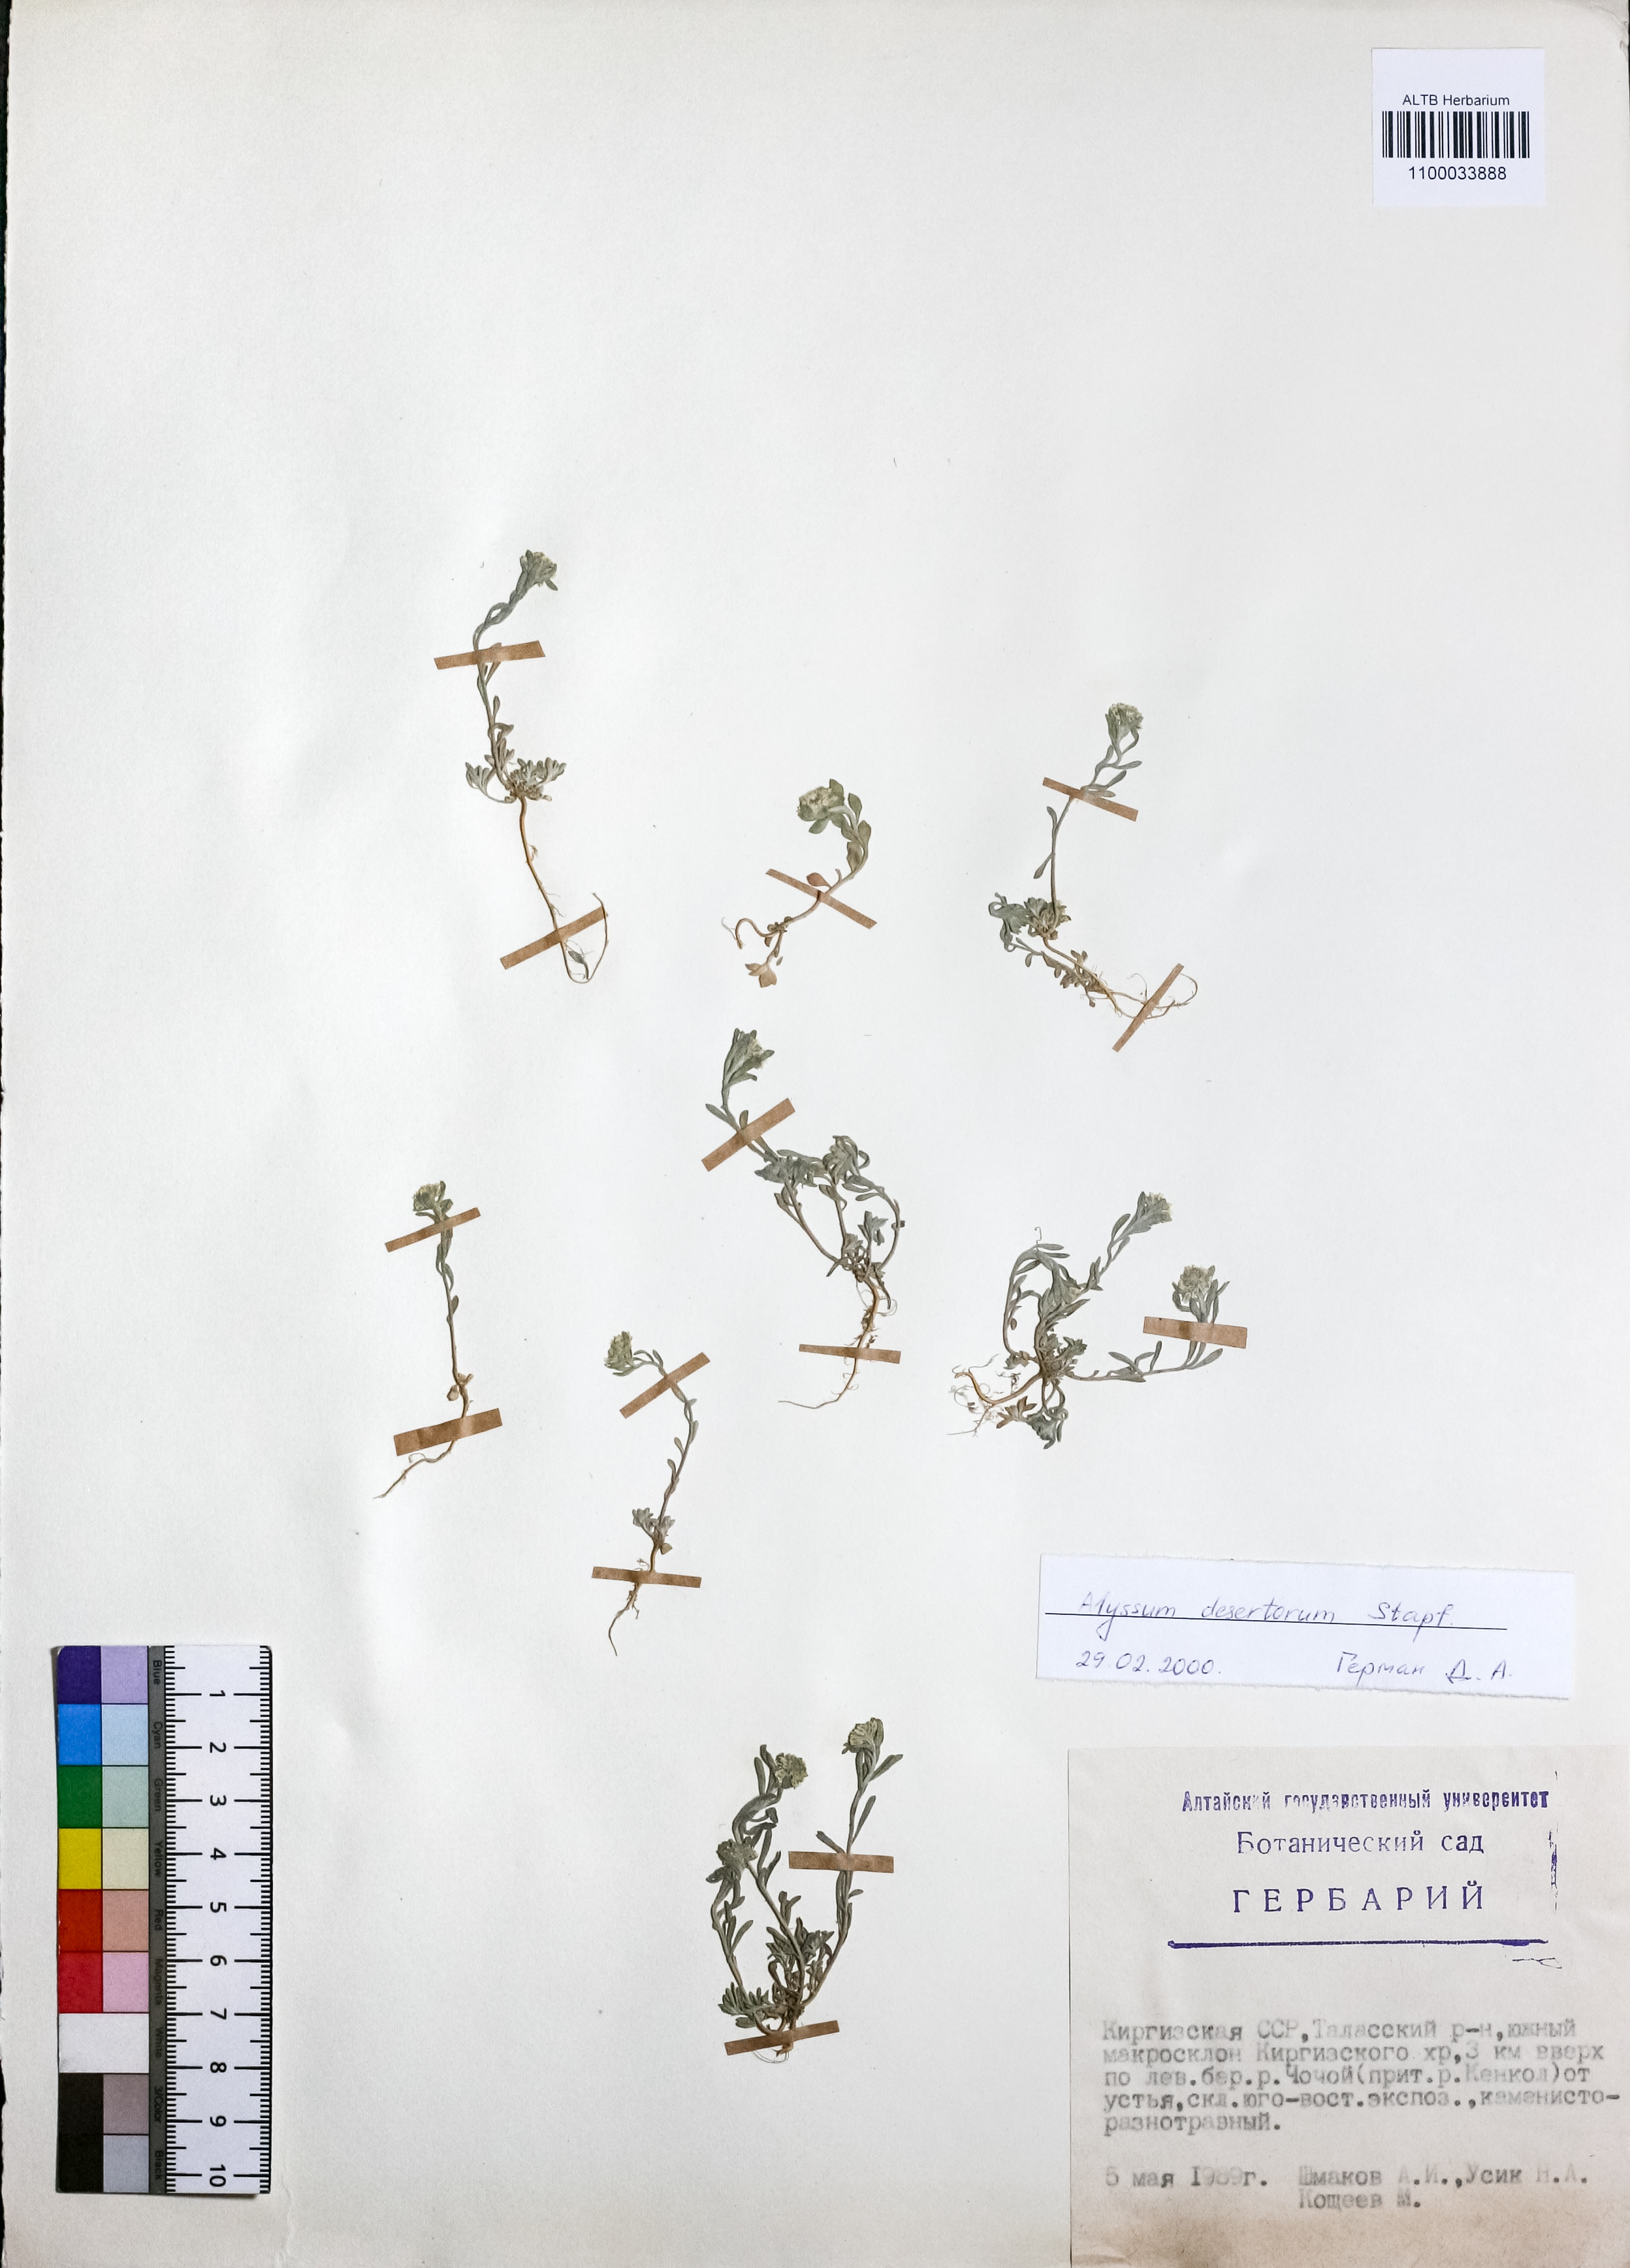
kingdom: Plantae
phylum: Tracheophyta
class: Magnoliopsida
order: Brassicales
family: Brassicaceae
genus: Alyssum
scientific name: Alyssum turkestanicum
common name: Desert alyssum
